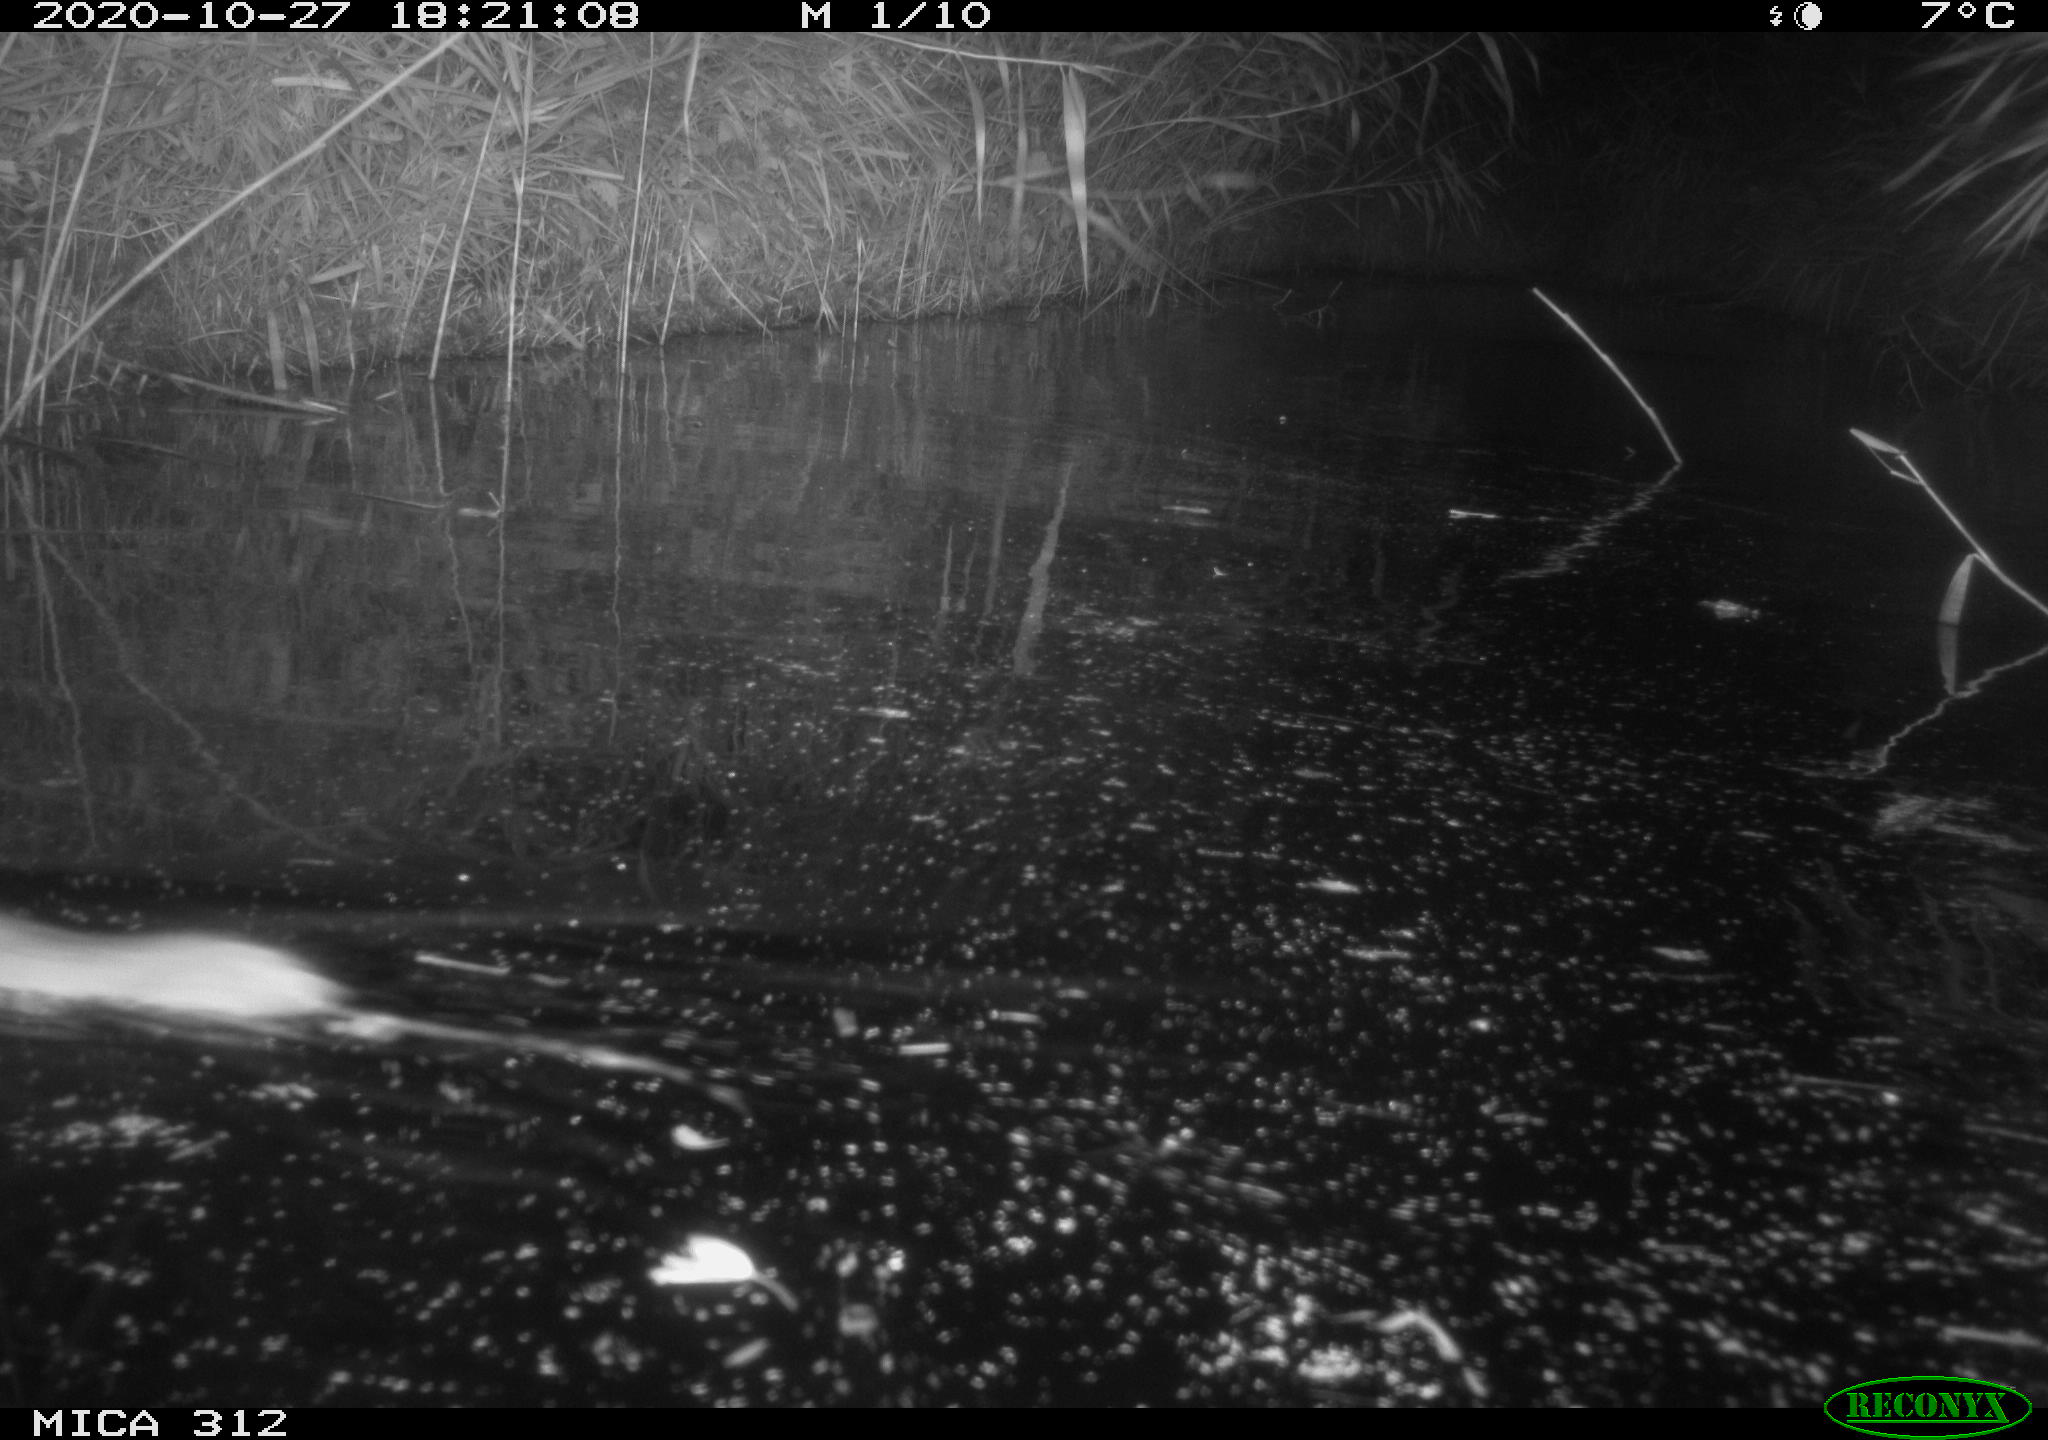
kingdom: Animalia
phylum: Chordata
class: Mammalia
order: Rodentia
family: Muridae
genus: Rattus
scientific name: Rattus norvegicus
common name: Brown rat
